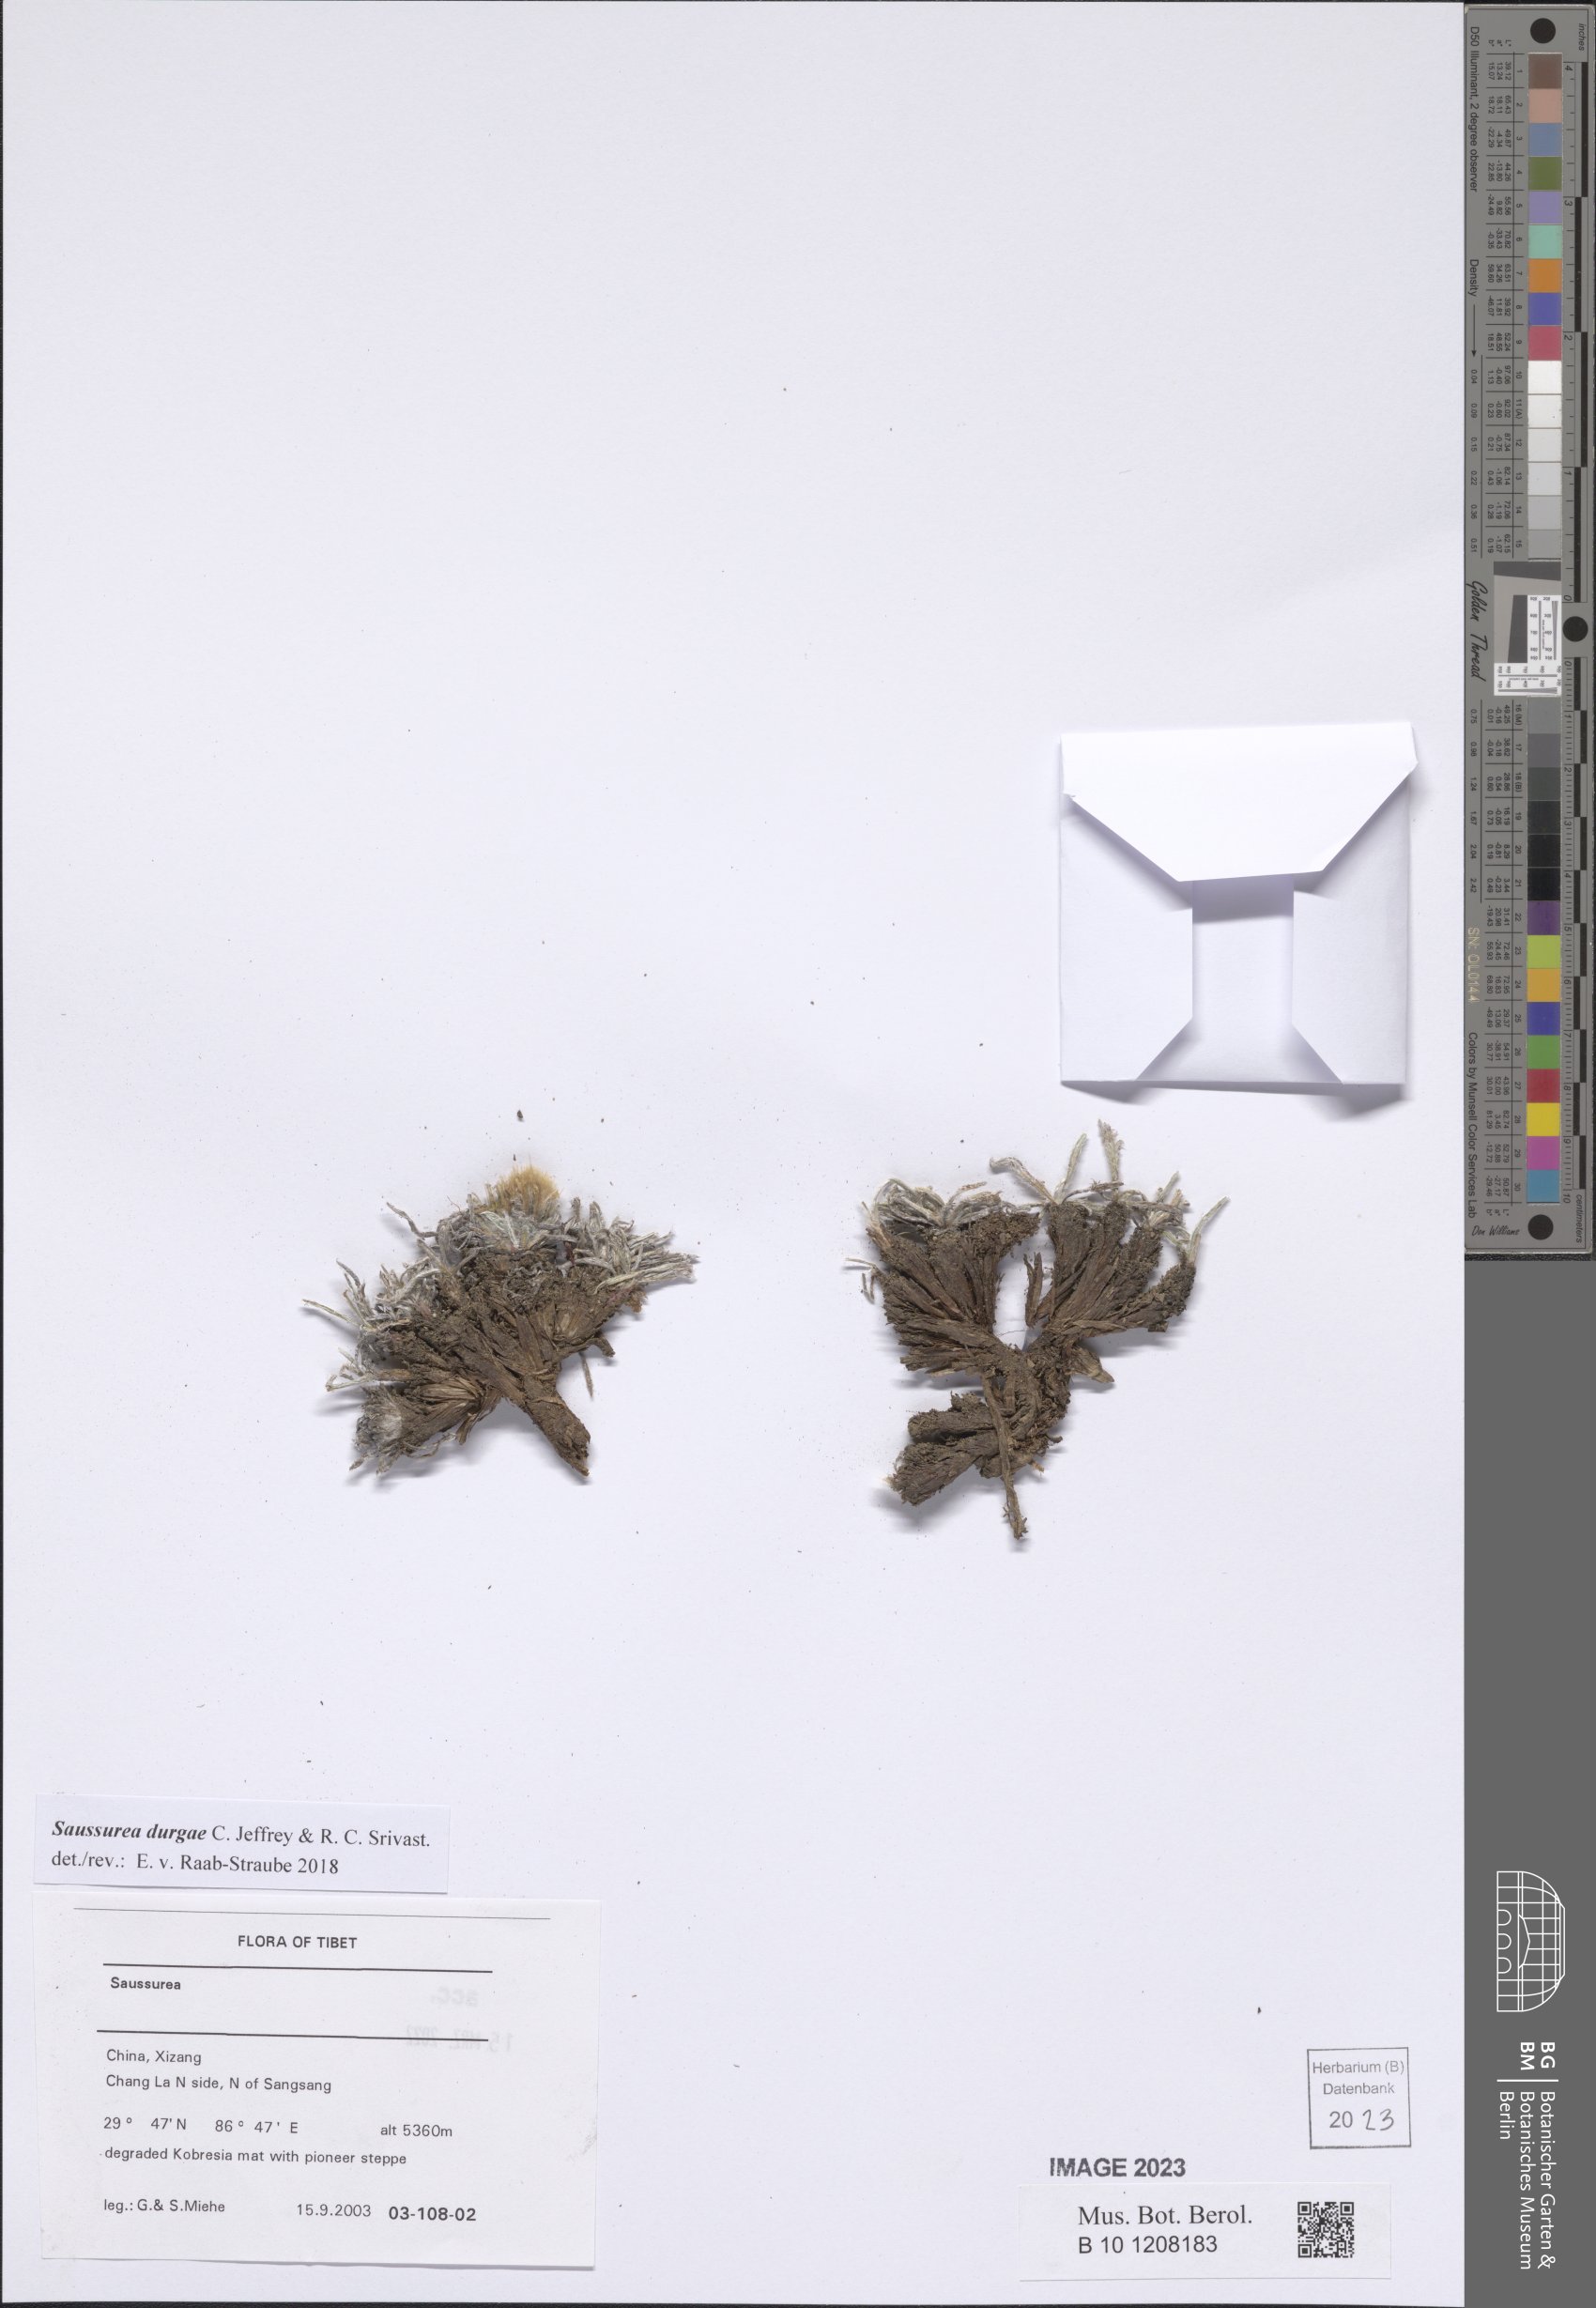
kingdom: Plantae
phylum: Tracheophyta
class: Magnoliopsida
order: Asterales
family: Asteraceae
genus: Saussurea
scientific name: Saussurea durgae
